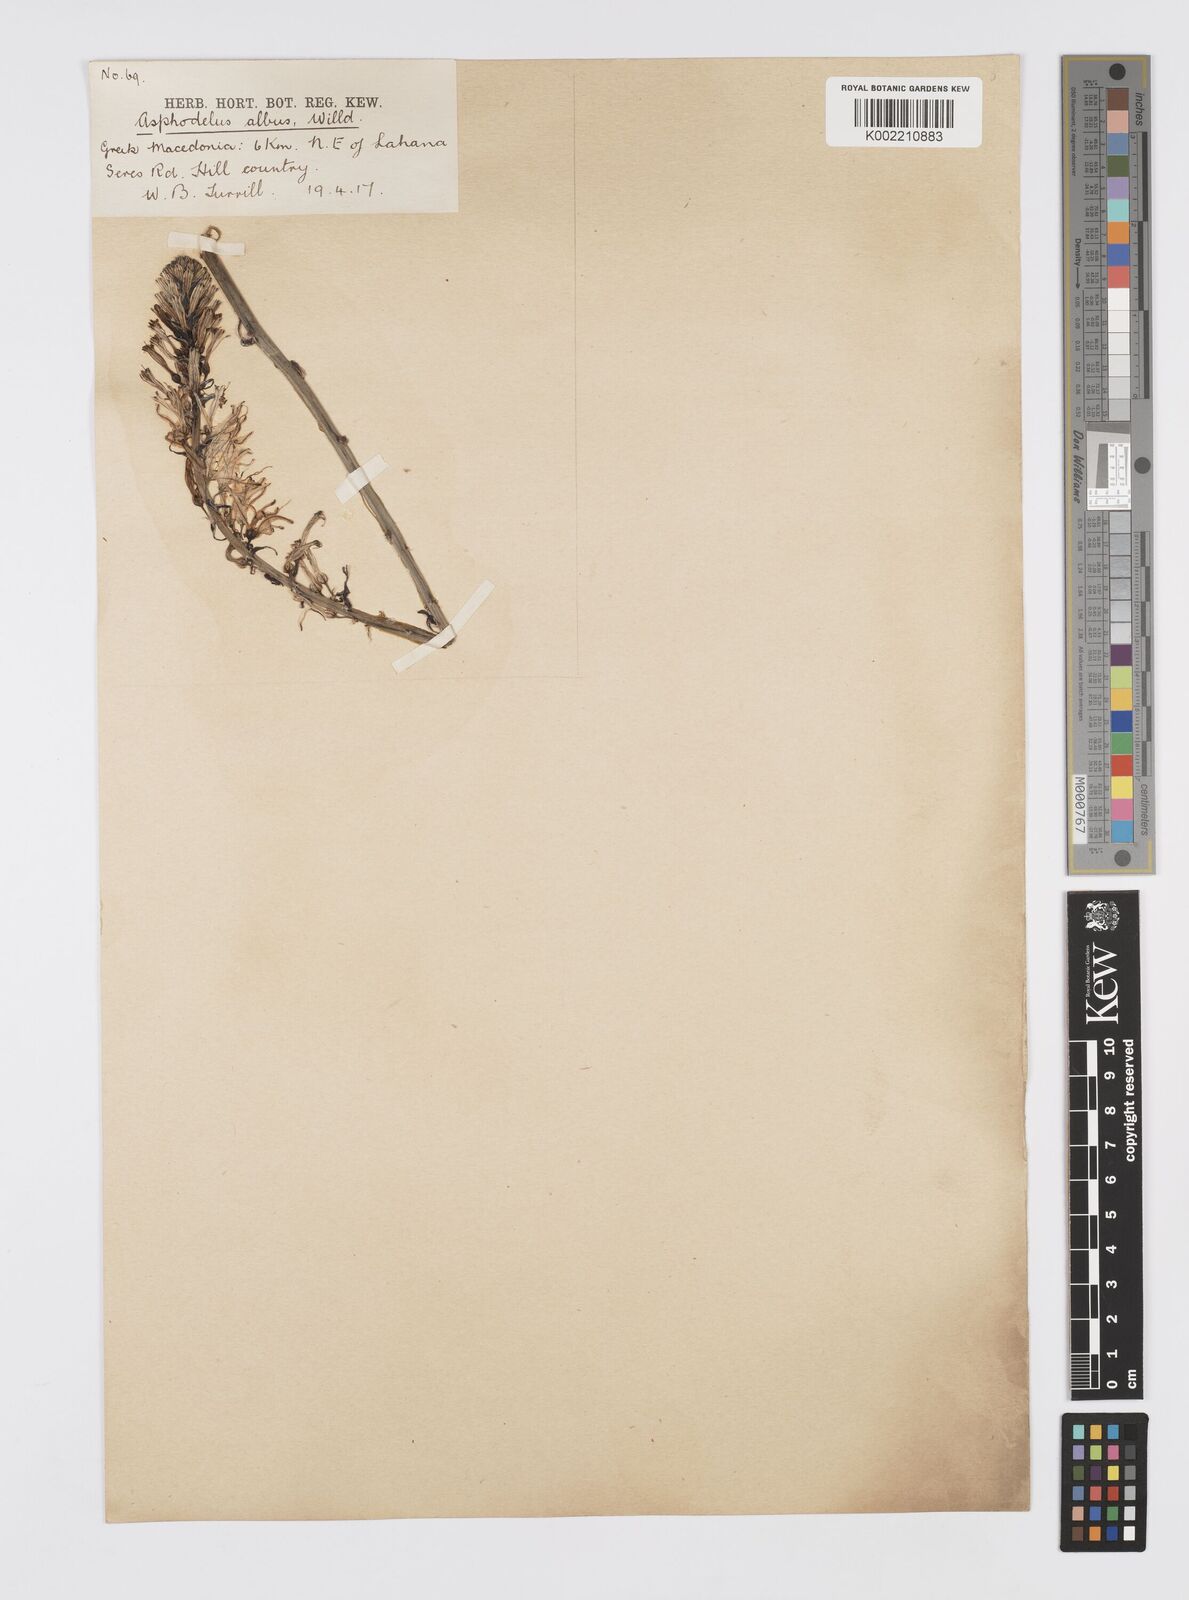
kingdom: Plantae
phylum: Tracheophyta
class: Liliopsida
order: Asparagales
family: Asphodelaceae
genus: Asphodelus
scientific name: Asphodelus albus
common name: White asphodel
